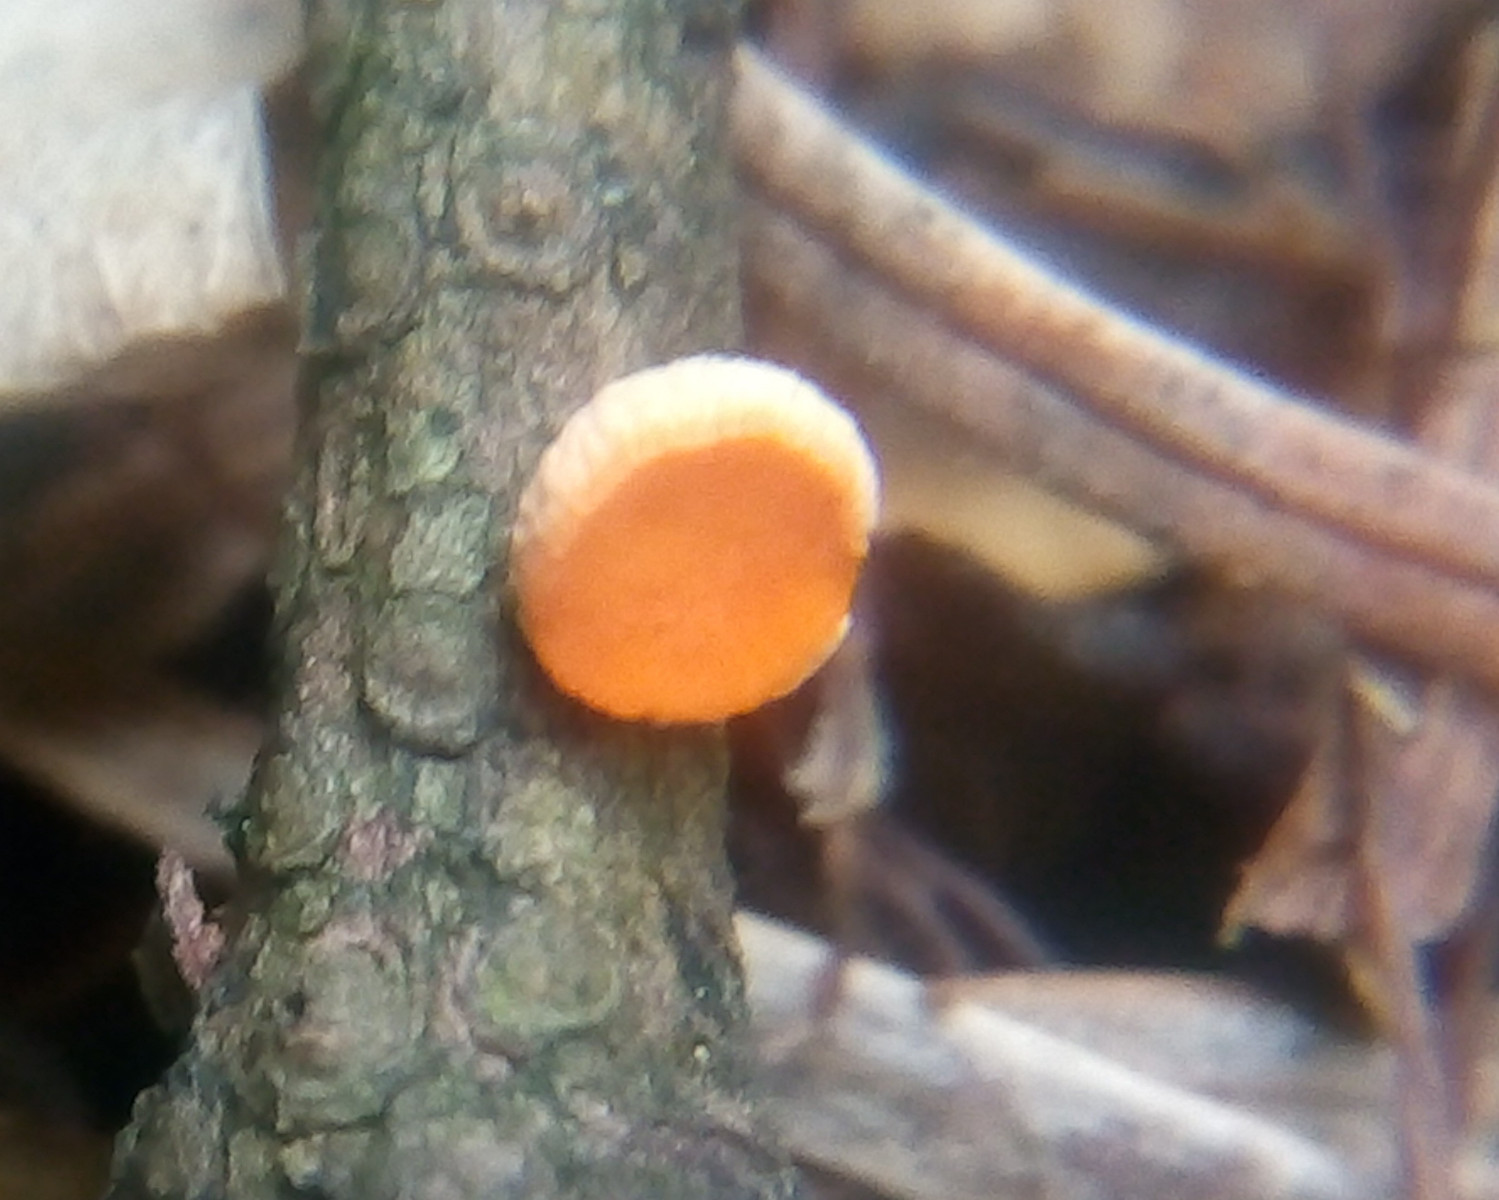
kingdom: Fungi
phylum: Ascomycota
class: Pezizomycetes
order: Pezizales
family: Sarcoscyphaceae
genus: Pithya
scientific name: Pithya vulgaris
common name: stor dukatbæger
